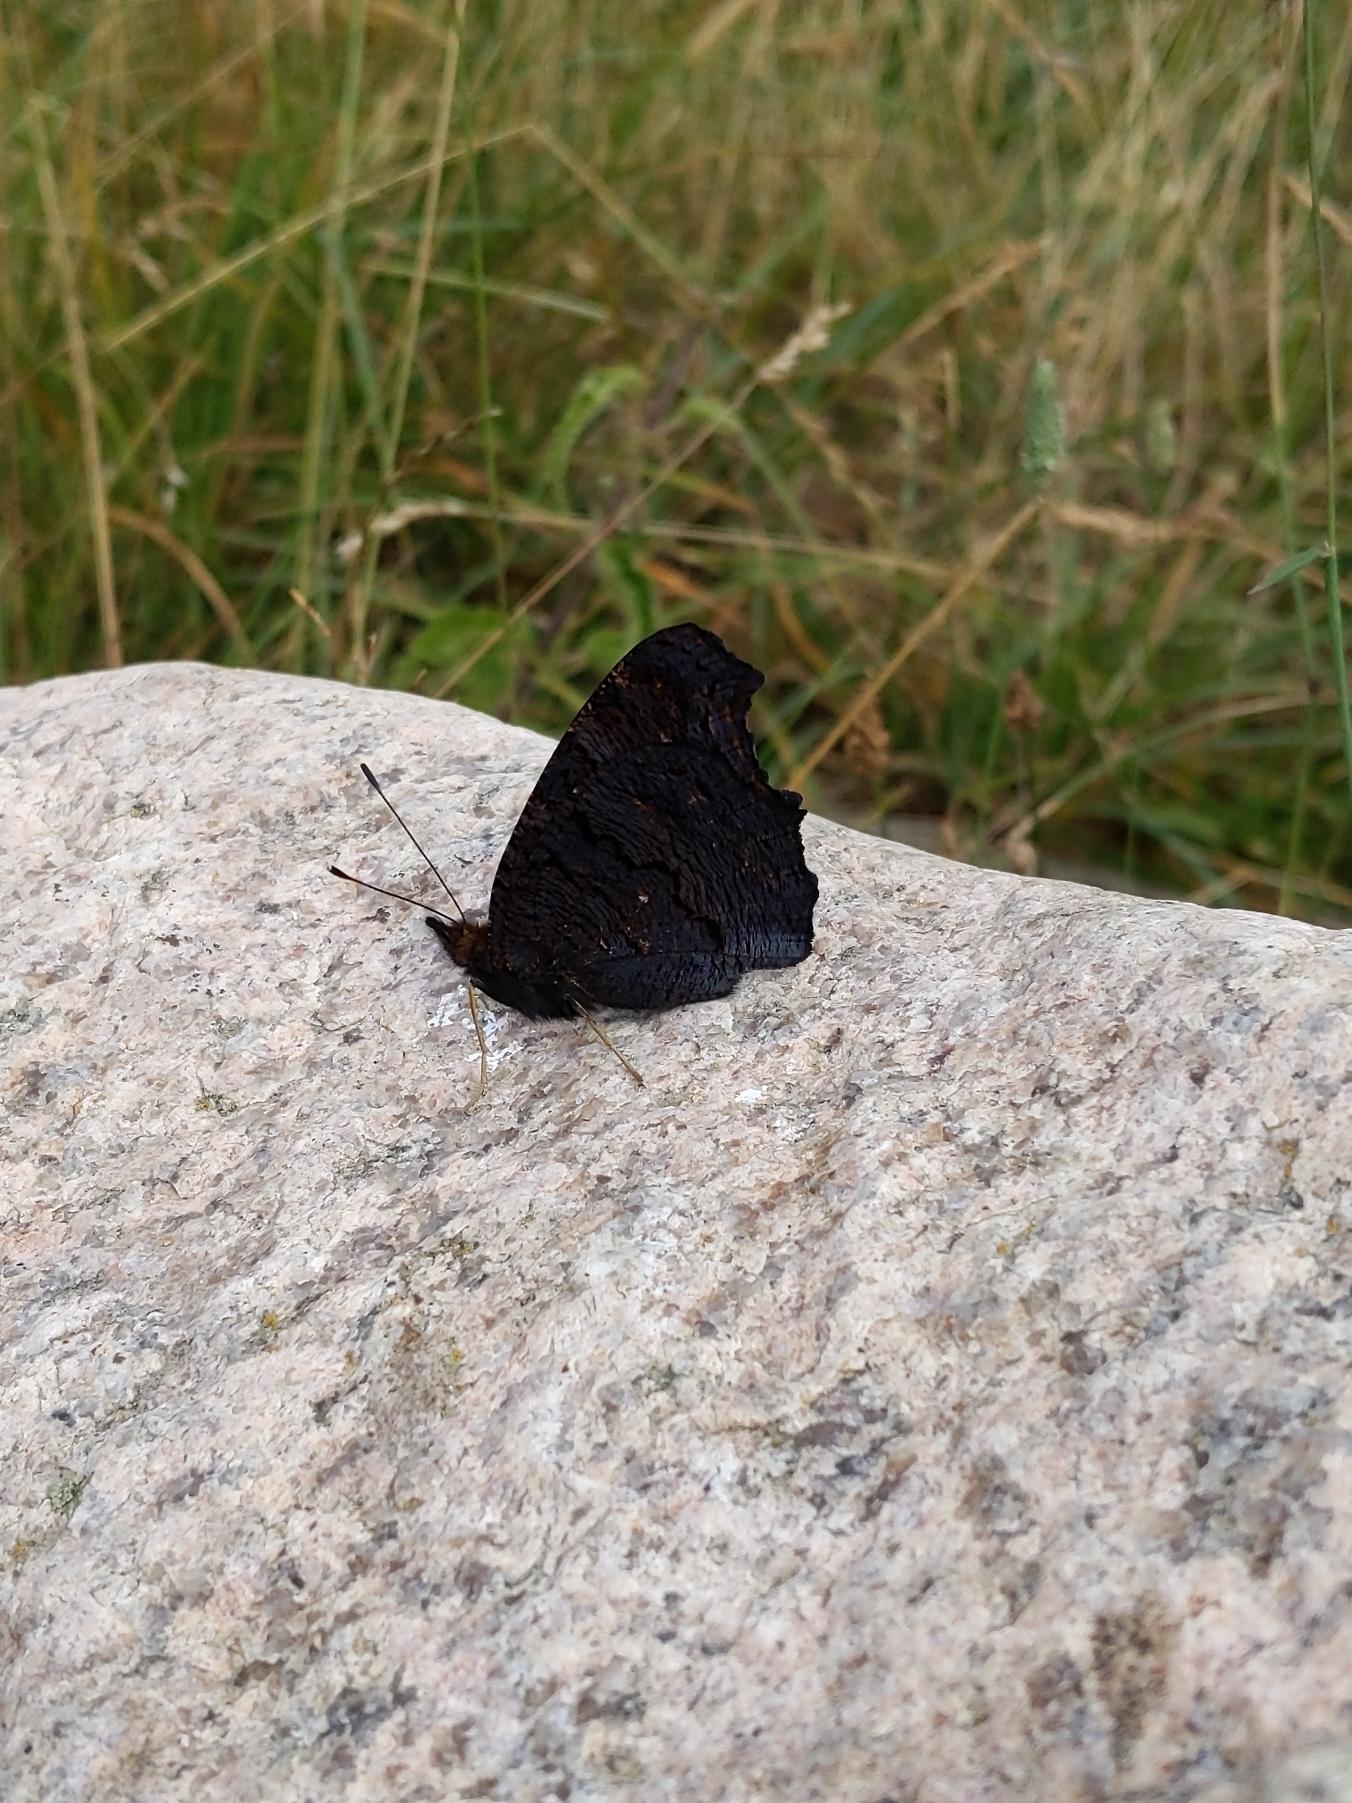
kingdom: Animalia
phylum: Arthropoda
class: Insecta
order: Lepidoptera
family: Nymphalidae
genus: Aglais
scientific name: Aglais io
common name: Dagpåfugleøje
